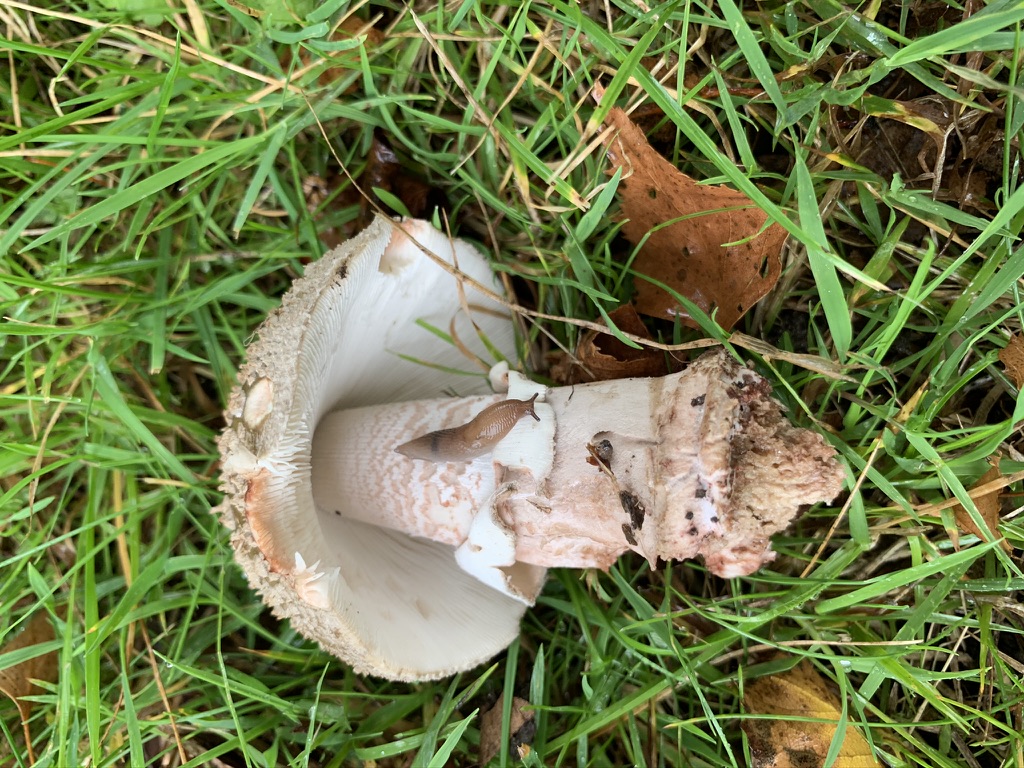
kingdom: Fungi
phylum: Basidiomycota
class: Agaricomycetes
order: Agaricales
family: Amanitaceae
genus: Amanita
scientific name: Amanita rubescens
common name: rødmende fluesvamp
